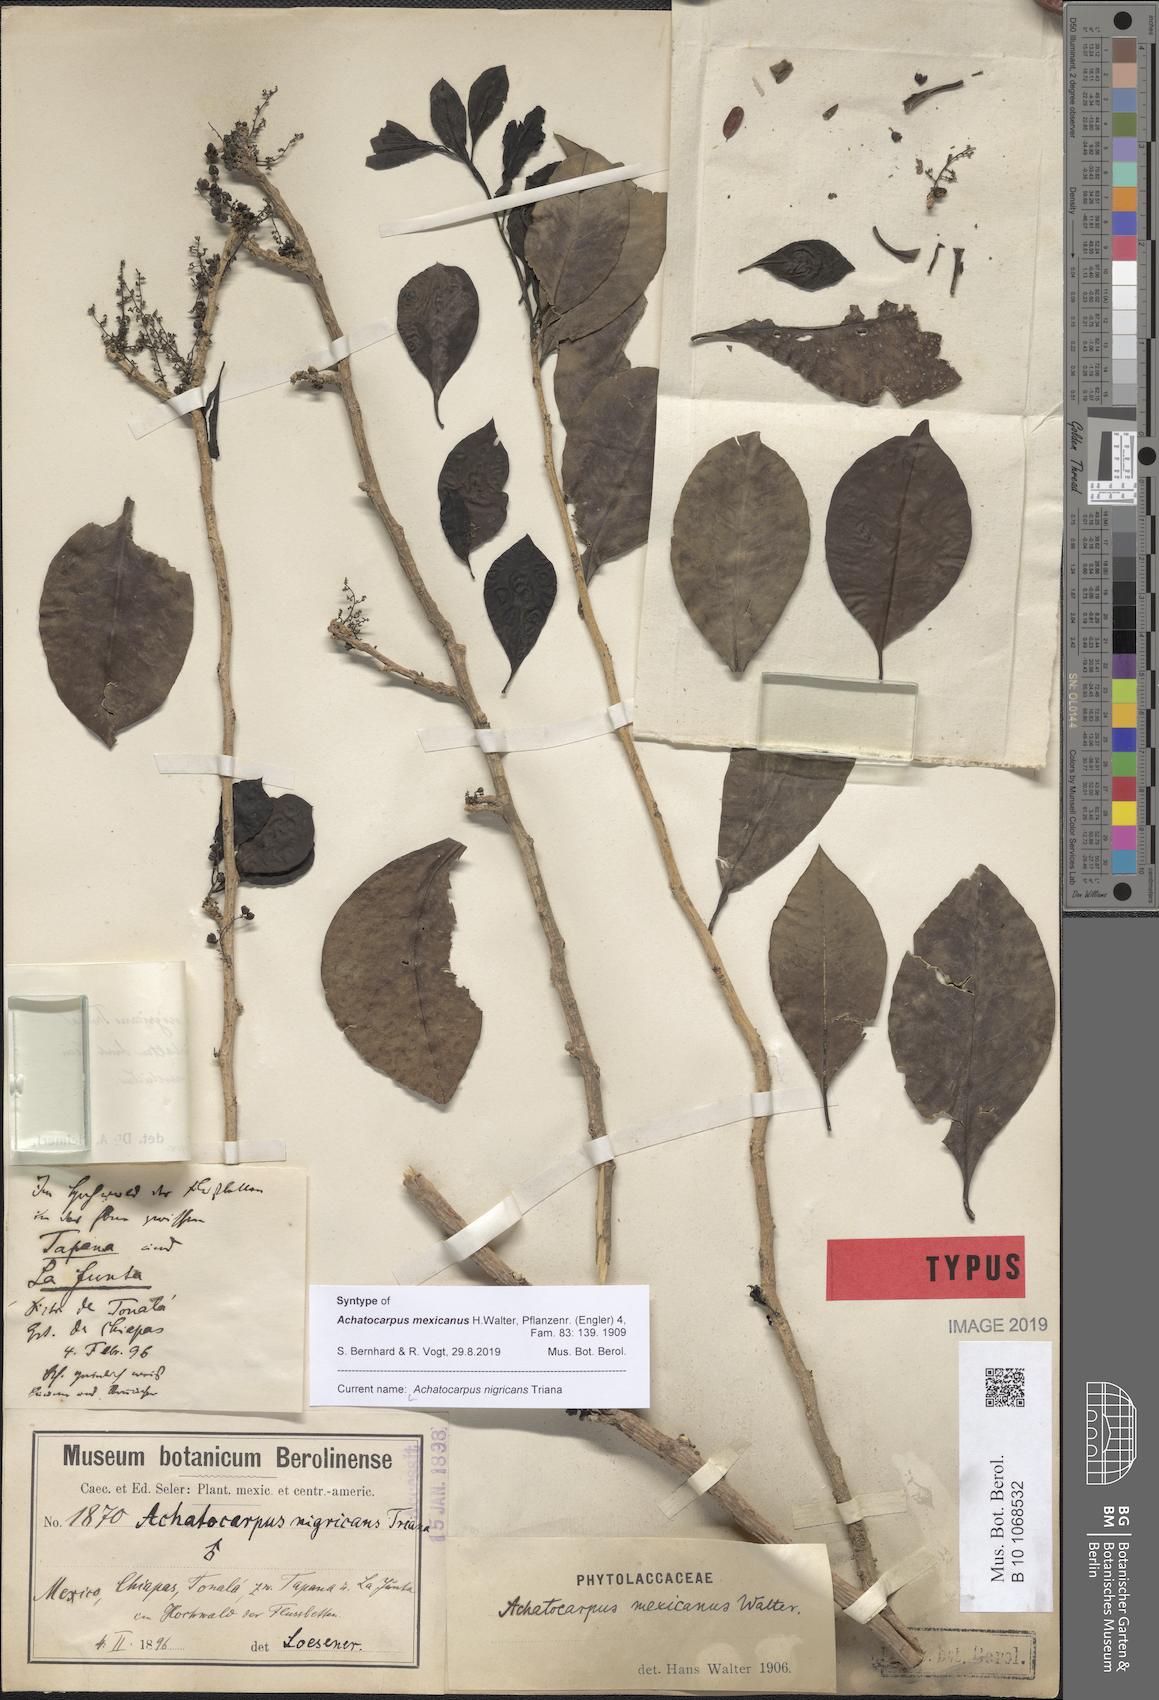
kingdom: Plantae
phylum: Tracheophyta
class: Magnoliopsida
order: Caryophyllales
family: Achatocarpaceae
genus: Achatocarpus
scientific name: Achatocarpus nigricans
